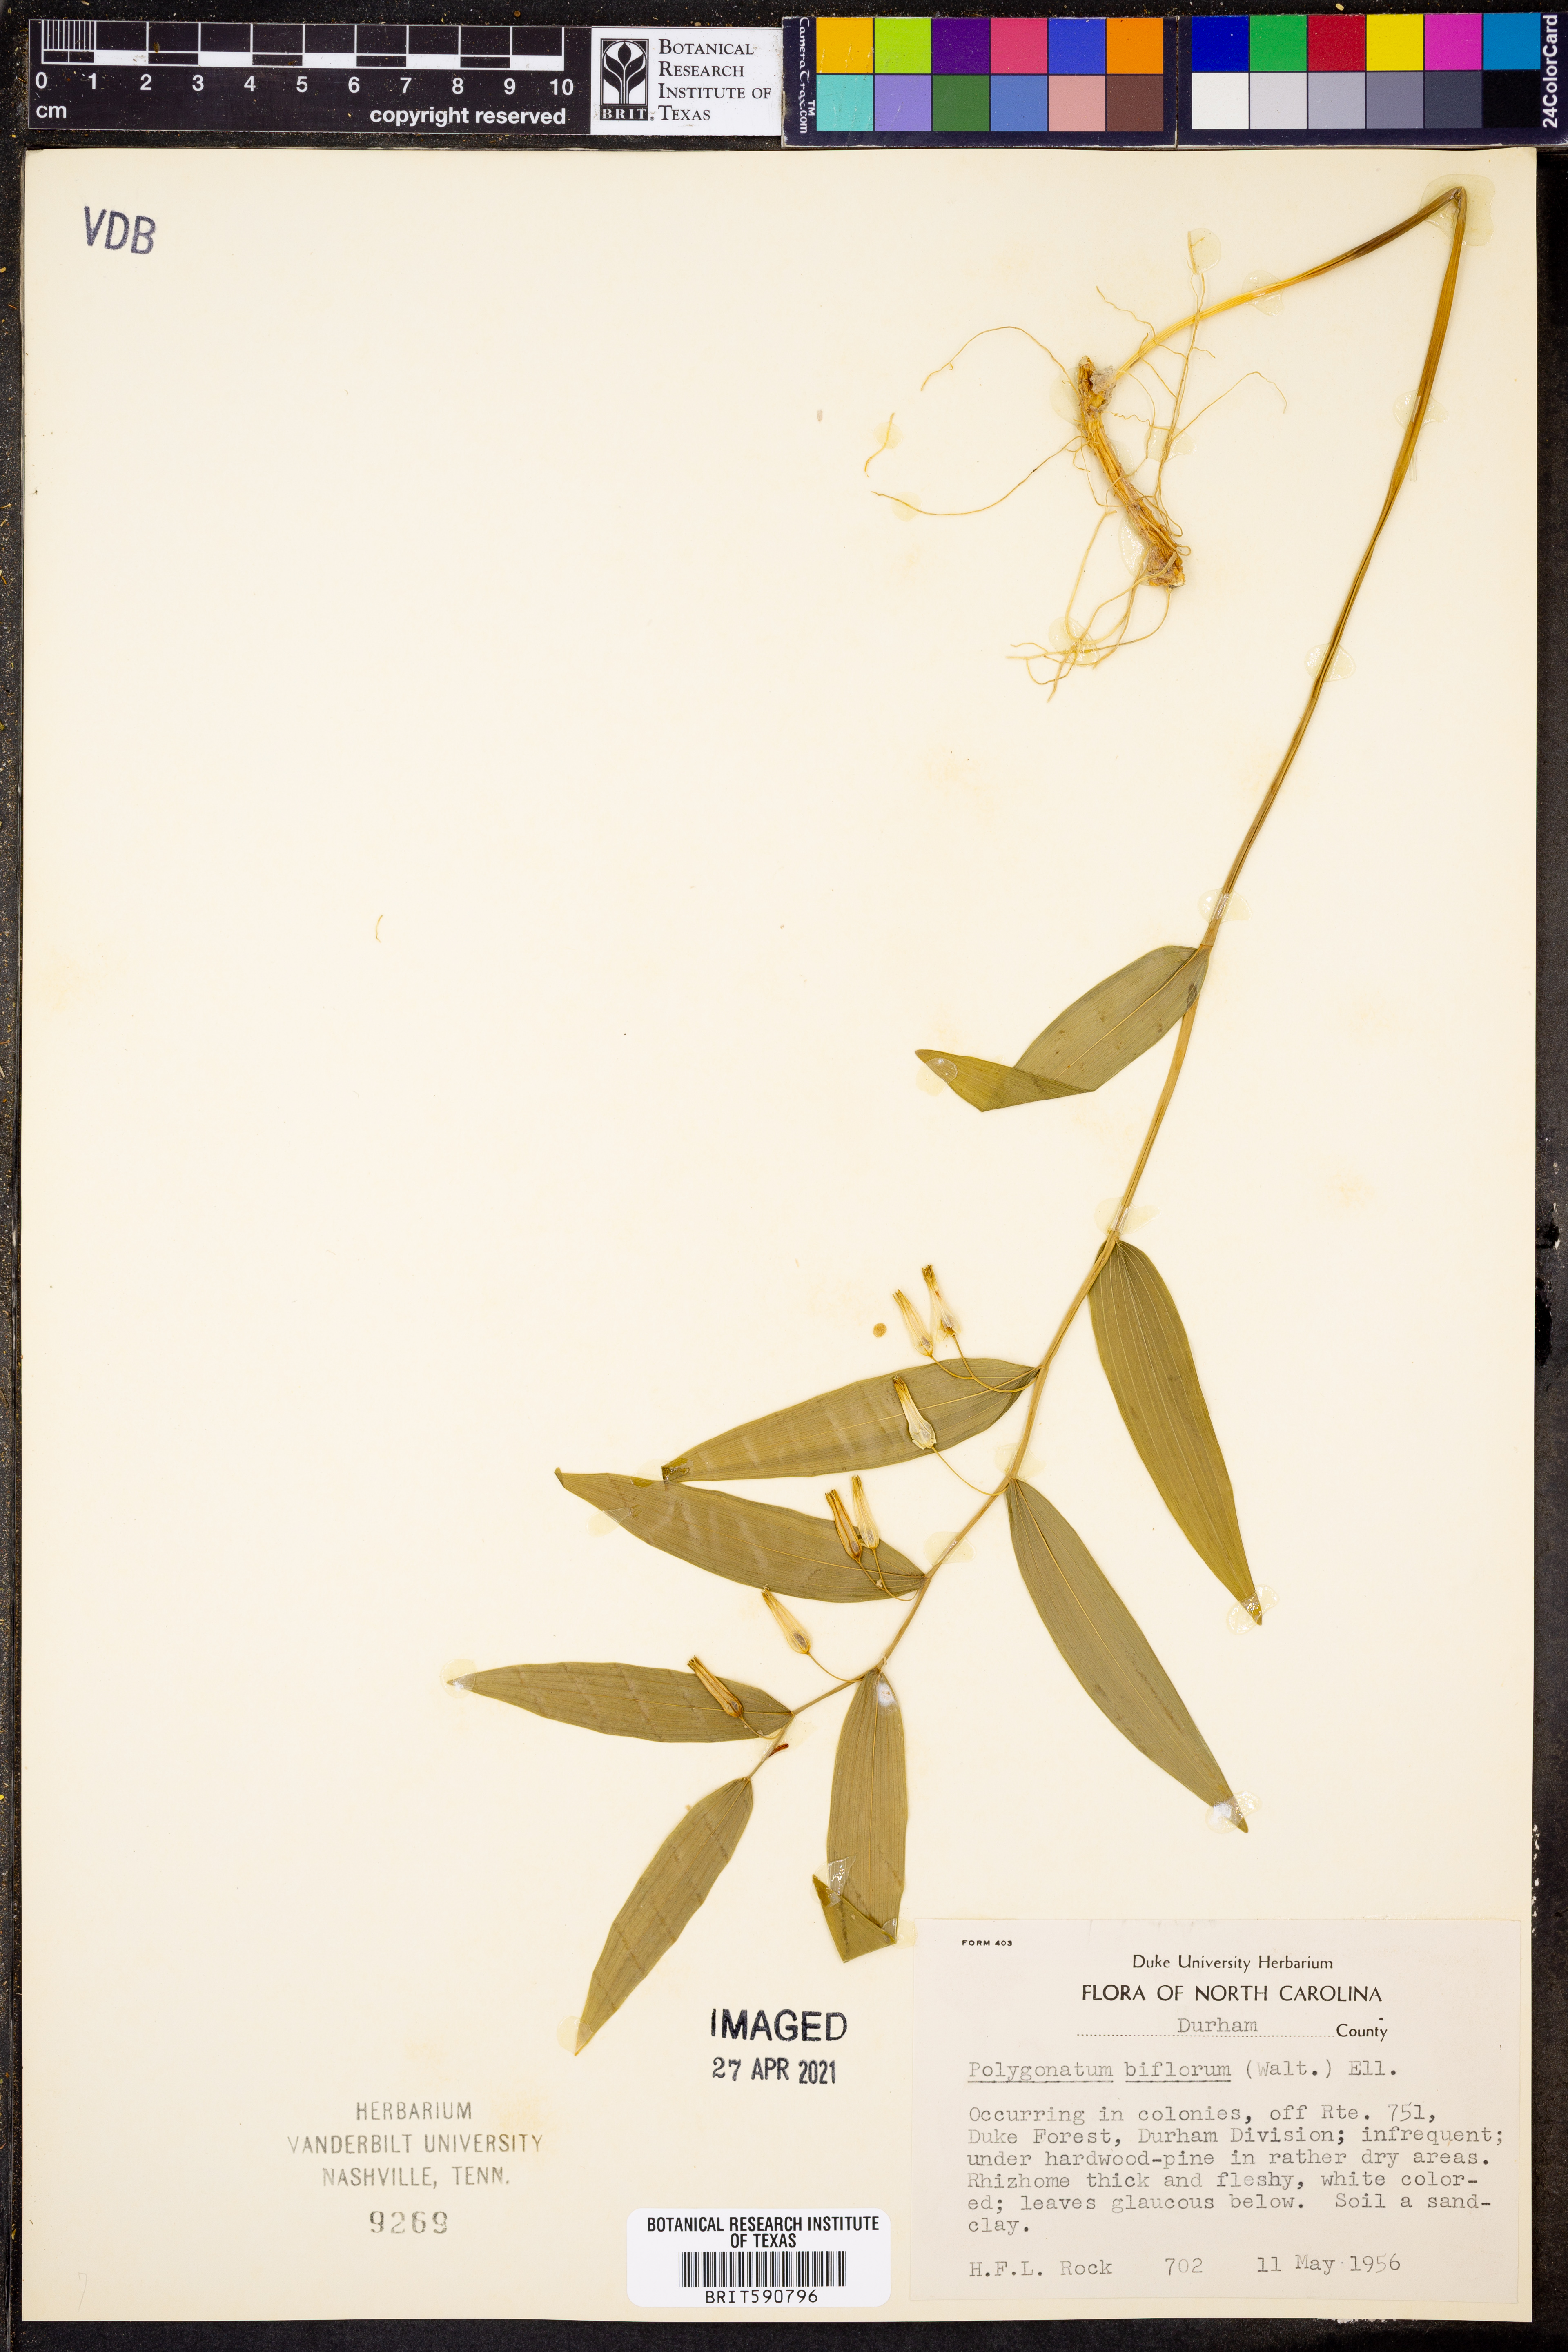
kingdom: Plantae
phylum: Tracheophyta
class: Liliopsida
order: Asparagales
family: Asparagaceae
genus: Polygonatum
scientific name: Polygonatum biflorum
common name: American solomon's-seal
